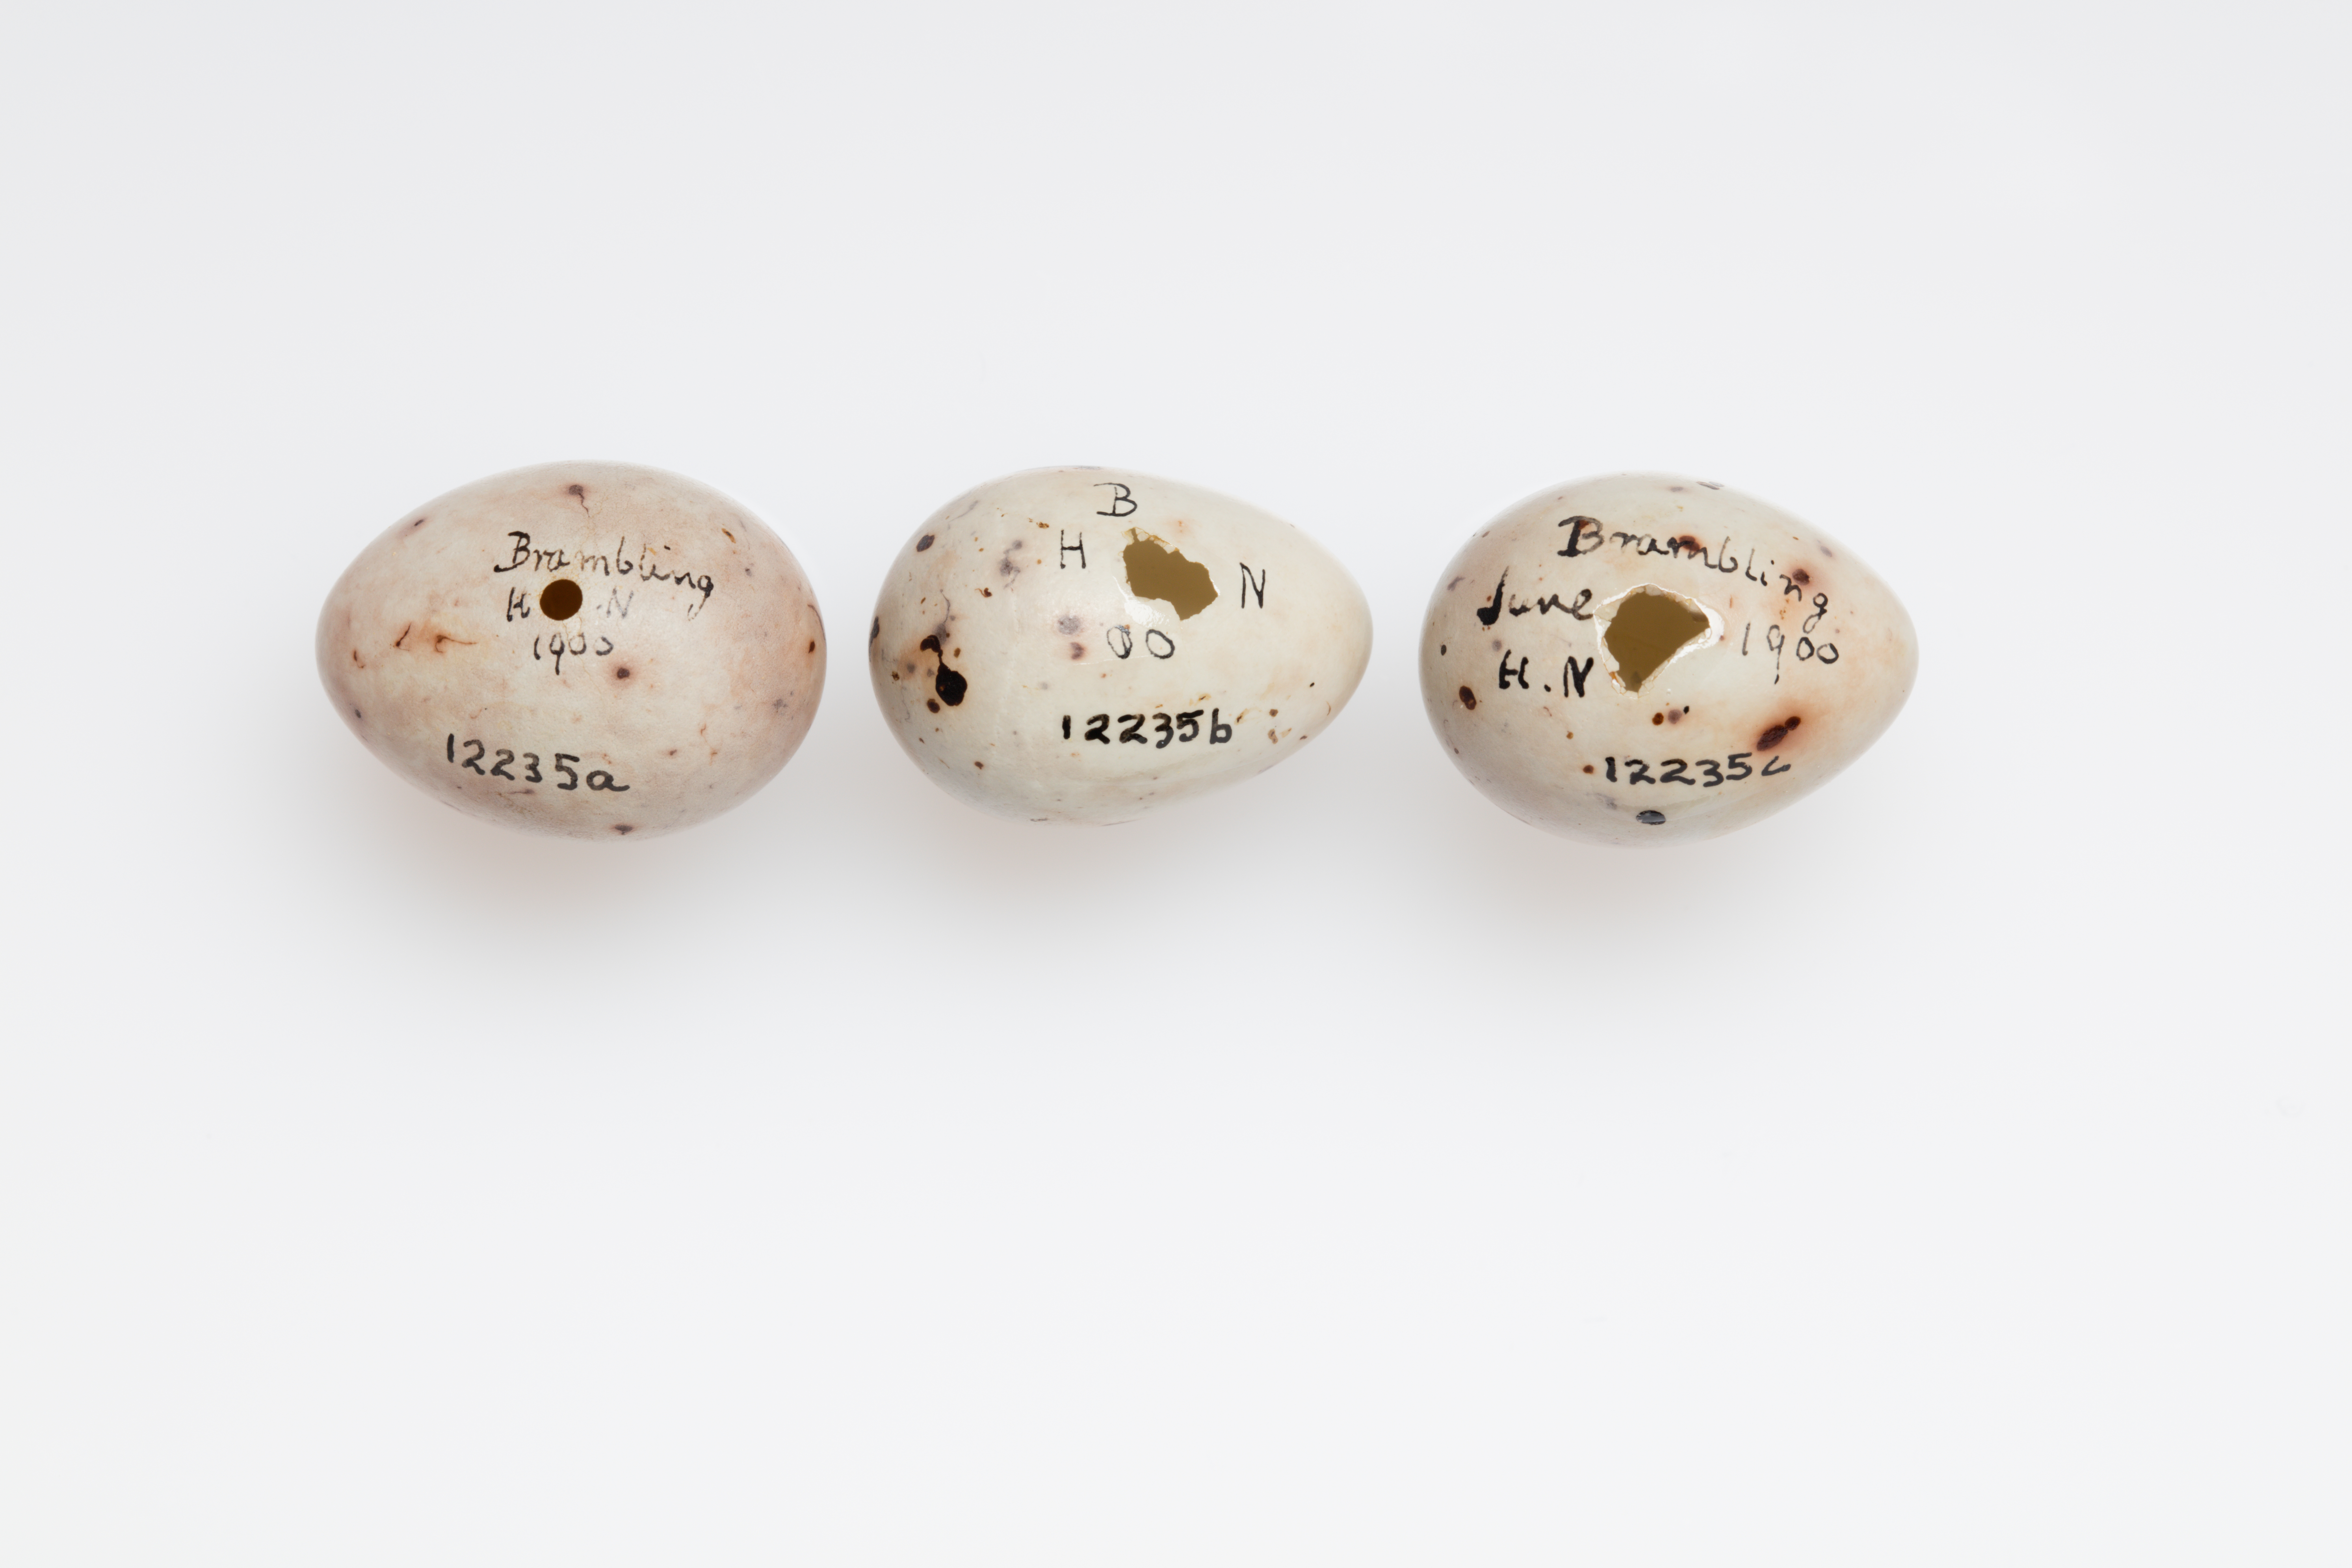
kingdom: Animalia
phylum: Chordata
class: Aves
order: Passeriformes
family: Fringillidae
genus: Fringilla
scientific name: Fringilla montifringilla
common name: Brambling
